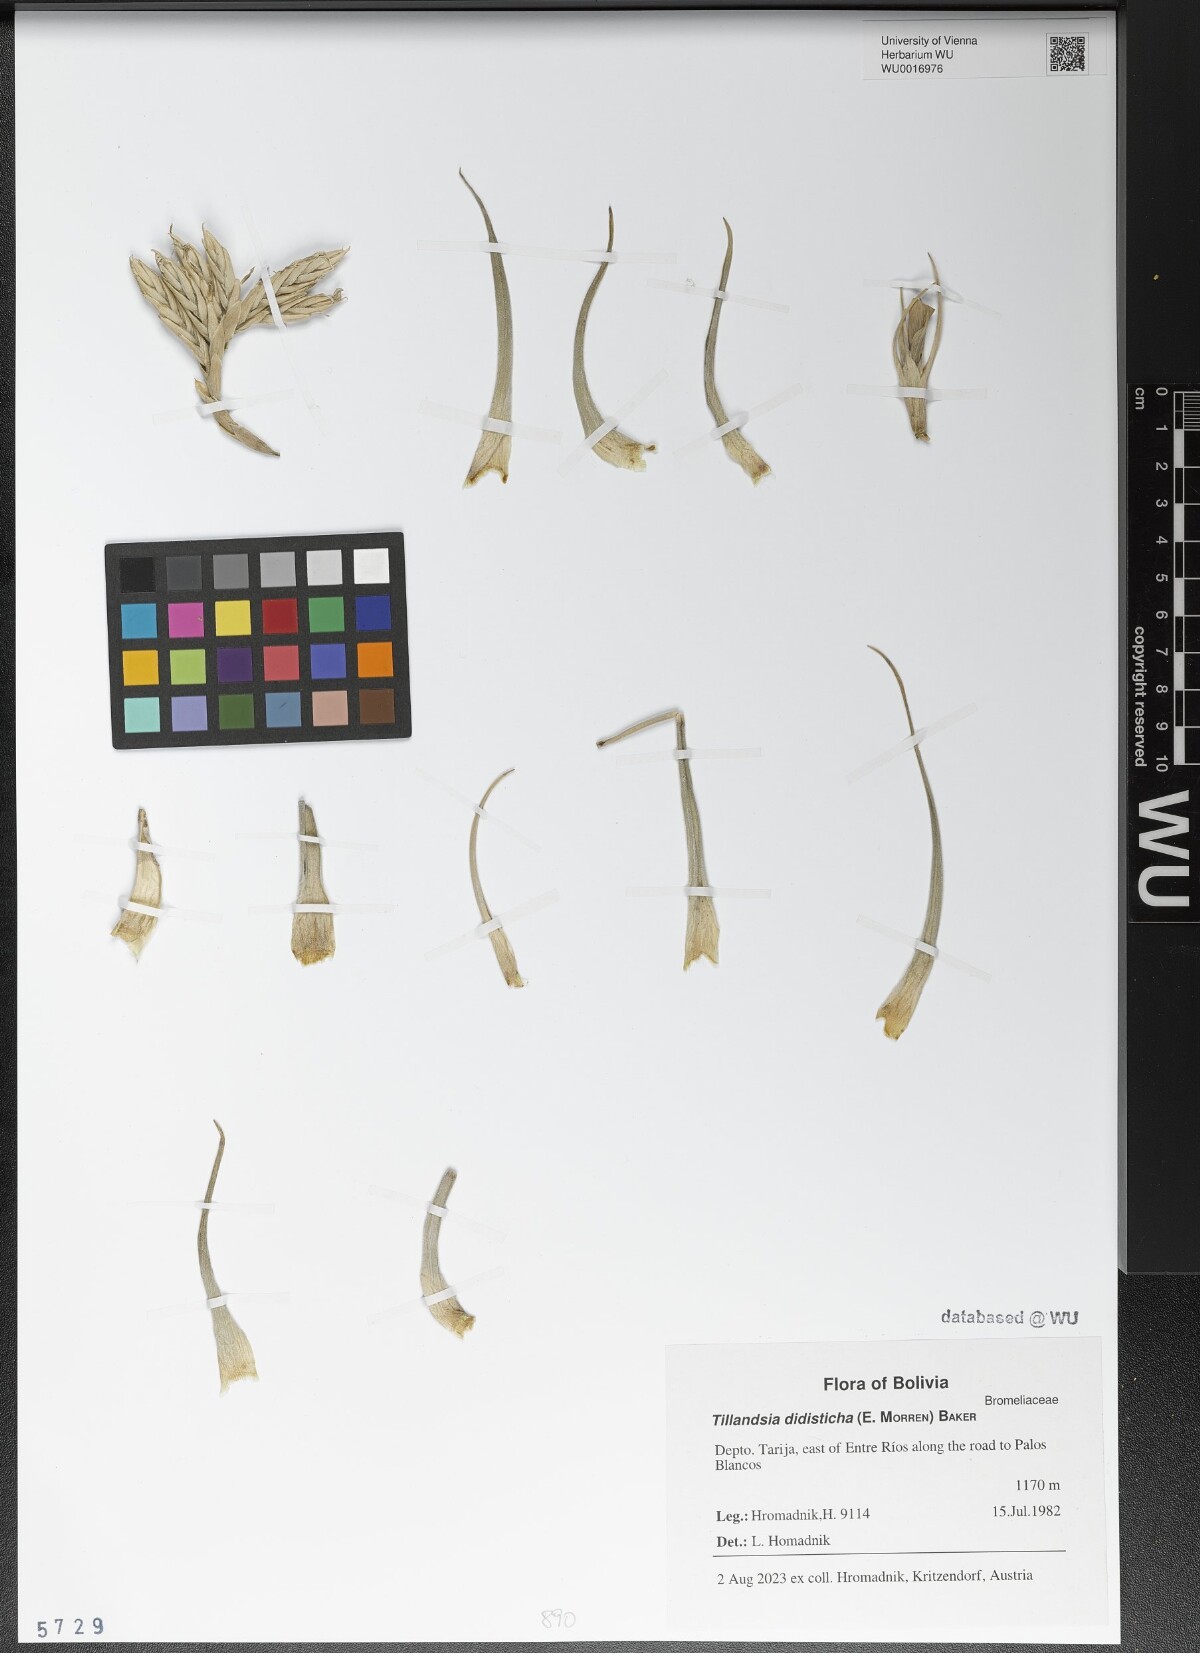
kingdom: Plantae
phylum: Tracheophyta
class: Liliopsida
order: Poales
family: Bromeliaceae
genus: Tillandsia
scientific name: Tillandsia didisticha
